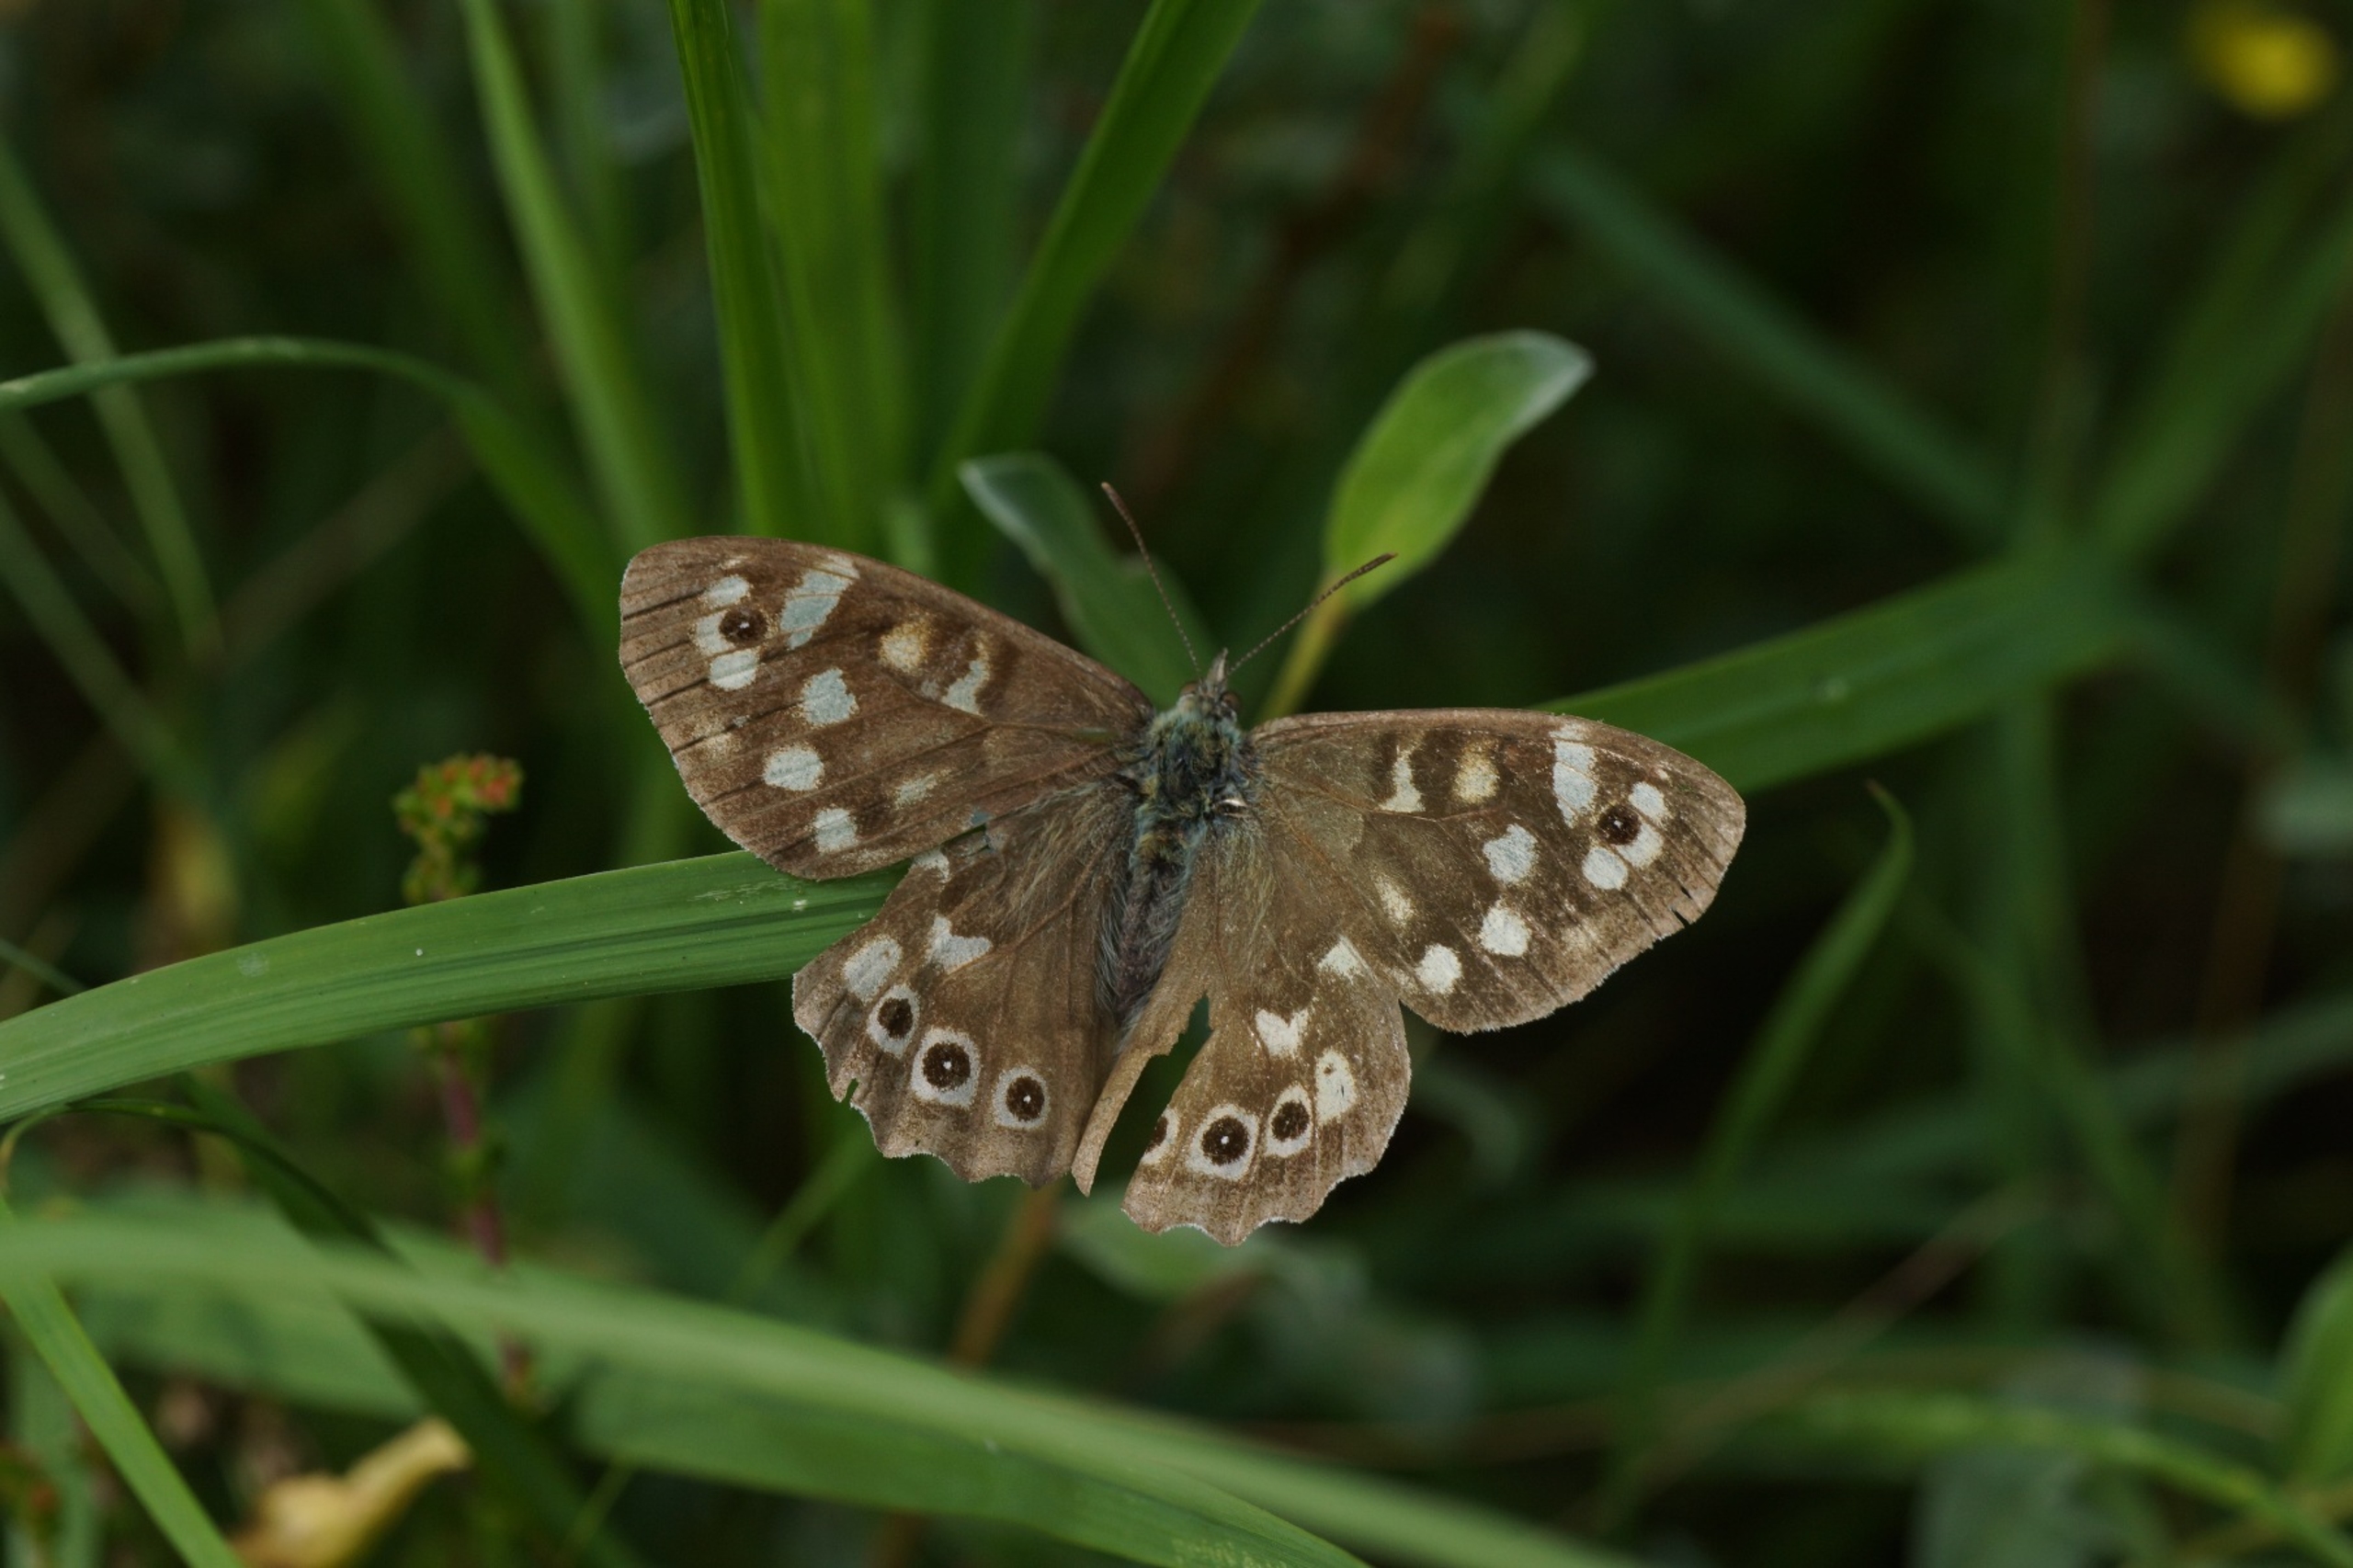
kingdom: Animalia
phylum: Arthropoda
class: Insecta
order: Lepidoptera
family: Nymphalidae
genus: Pararge
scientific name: Pararge aegeria
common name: Skovrandøje
